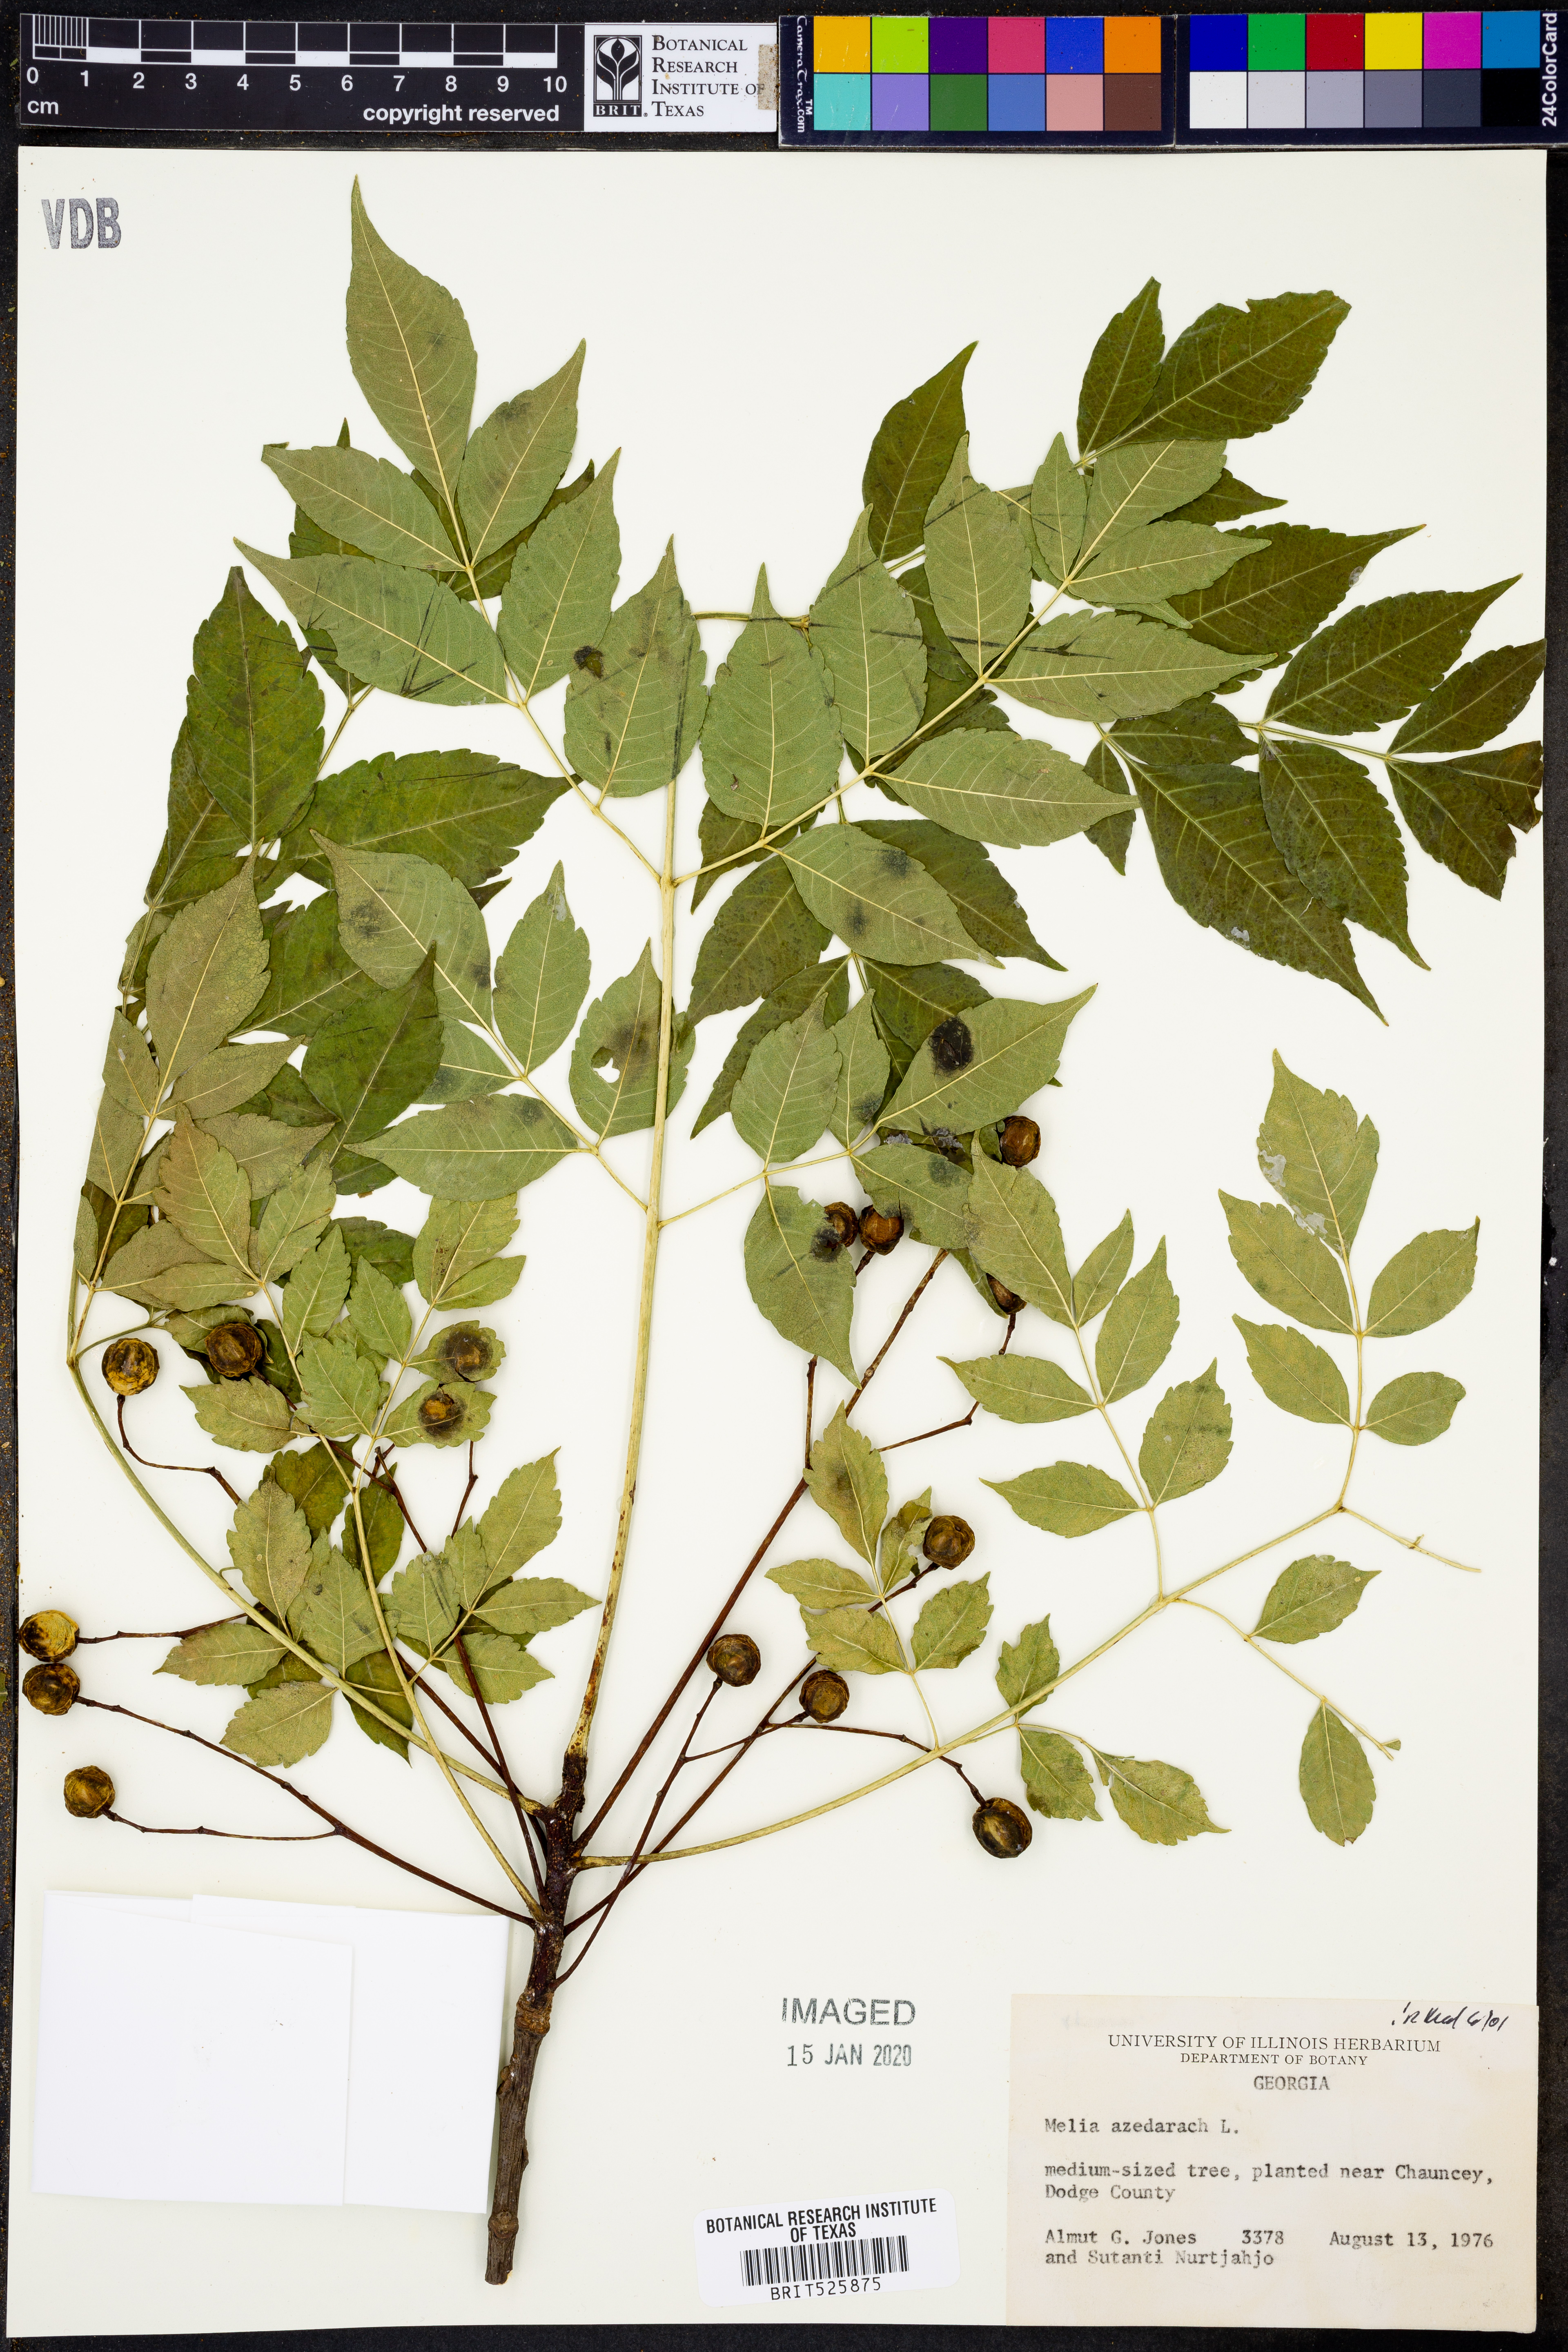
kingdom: Plantae
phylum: Tracheophyta
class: Magnoliopsida
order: Sapindales
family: Meliaceae
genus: Melia
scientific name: Melia azedarach
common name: Chinaberrytree
